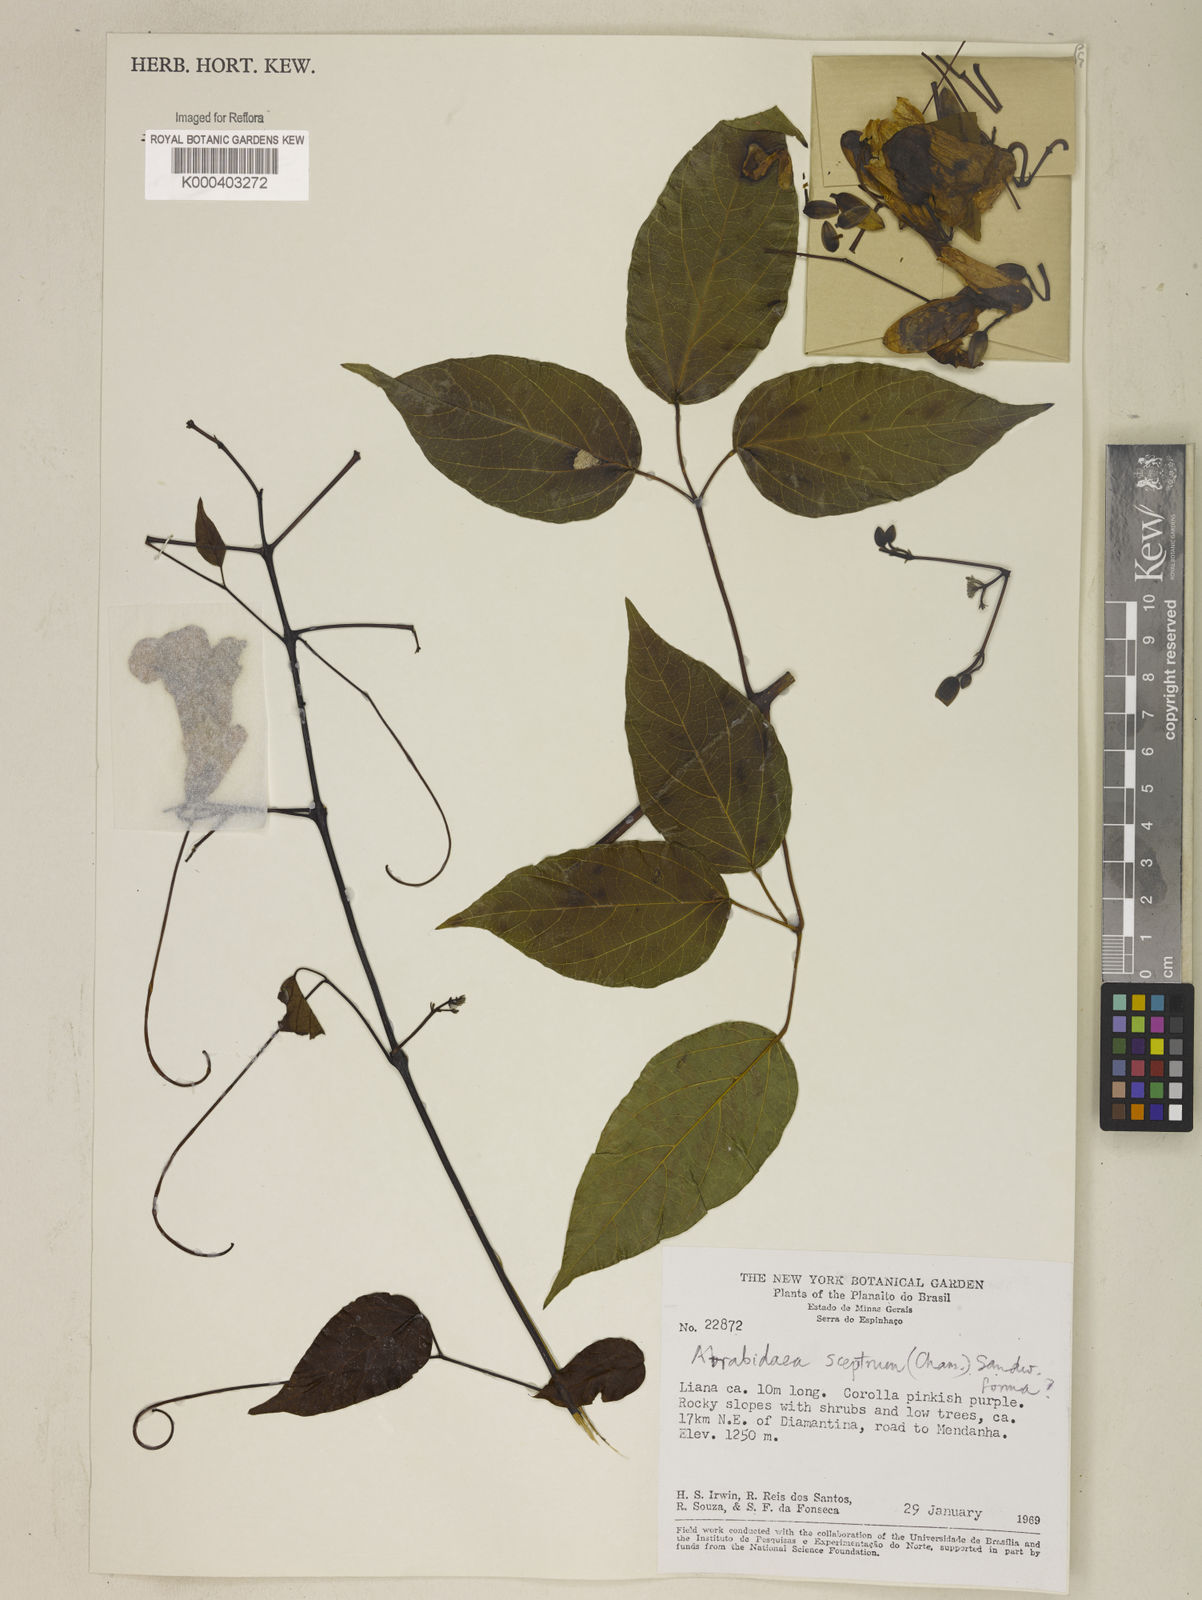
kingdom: Plantae
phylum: Tracheophyta
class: Magnoliopsida
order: Lamiales
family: Bignoniaceae
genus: Cuspidaria
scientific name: Cuspidaria sceptrum
